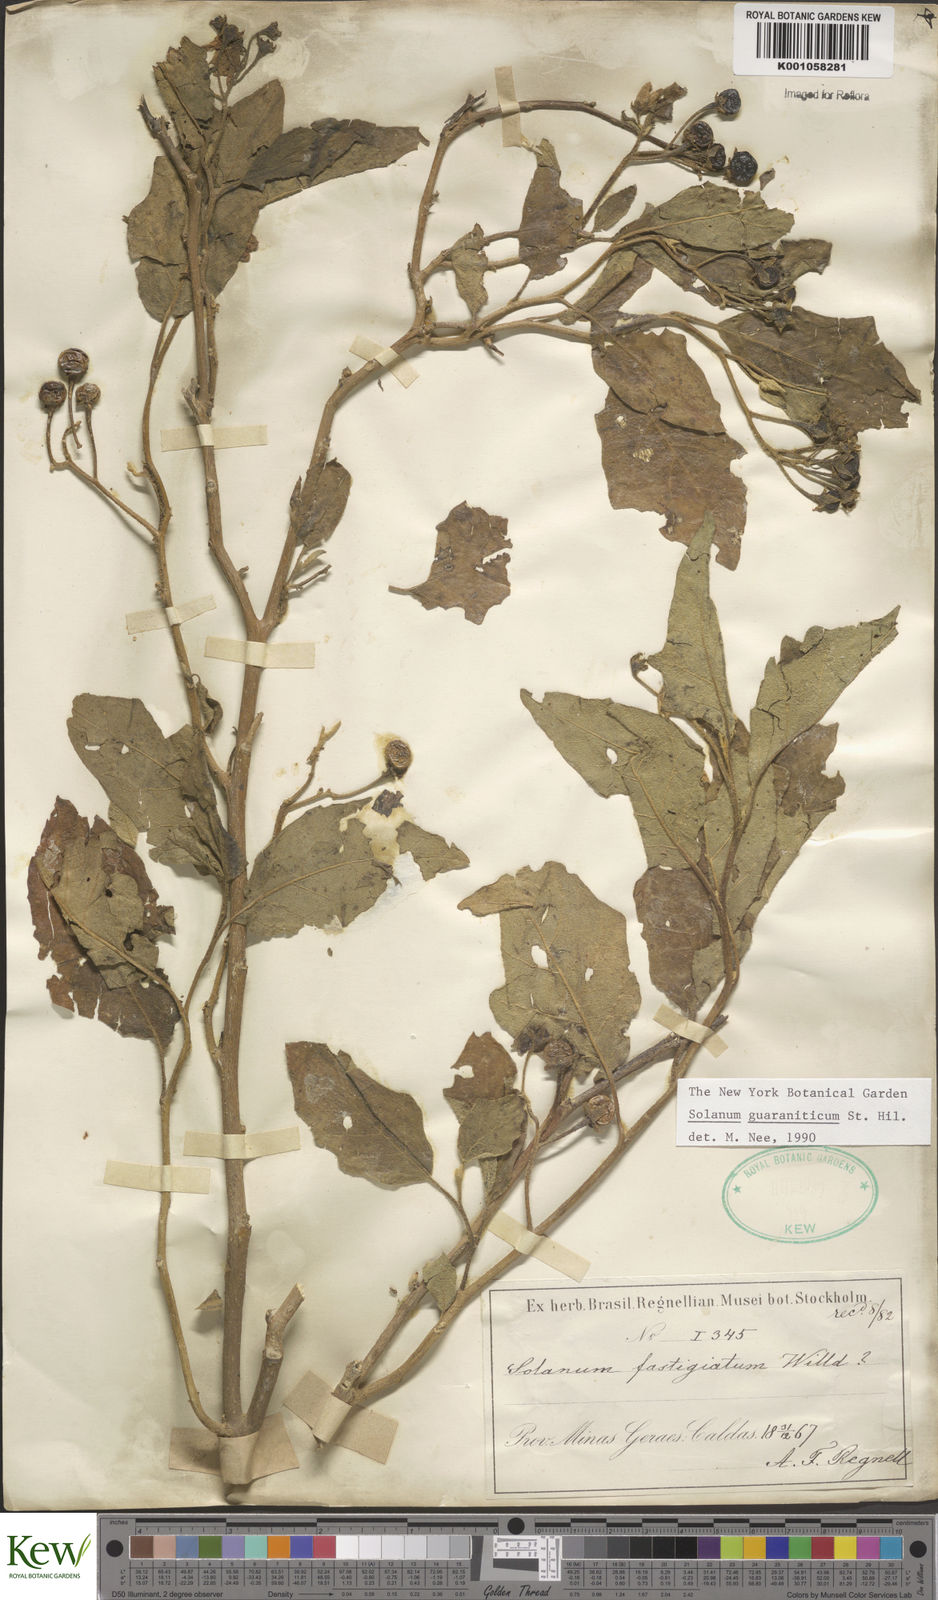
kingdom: Plantae
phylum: Tracheophyta
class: Magnoliopsida
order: Solanales
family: Solanaceae
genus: Solanum
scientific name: Solanum guaraniticum
